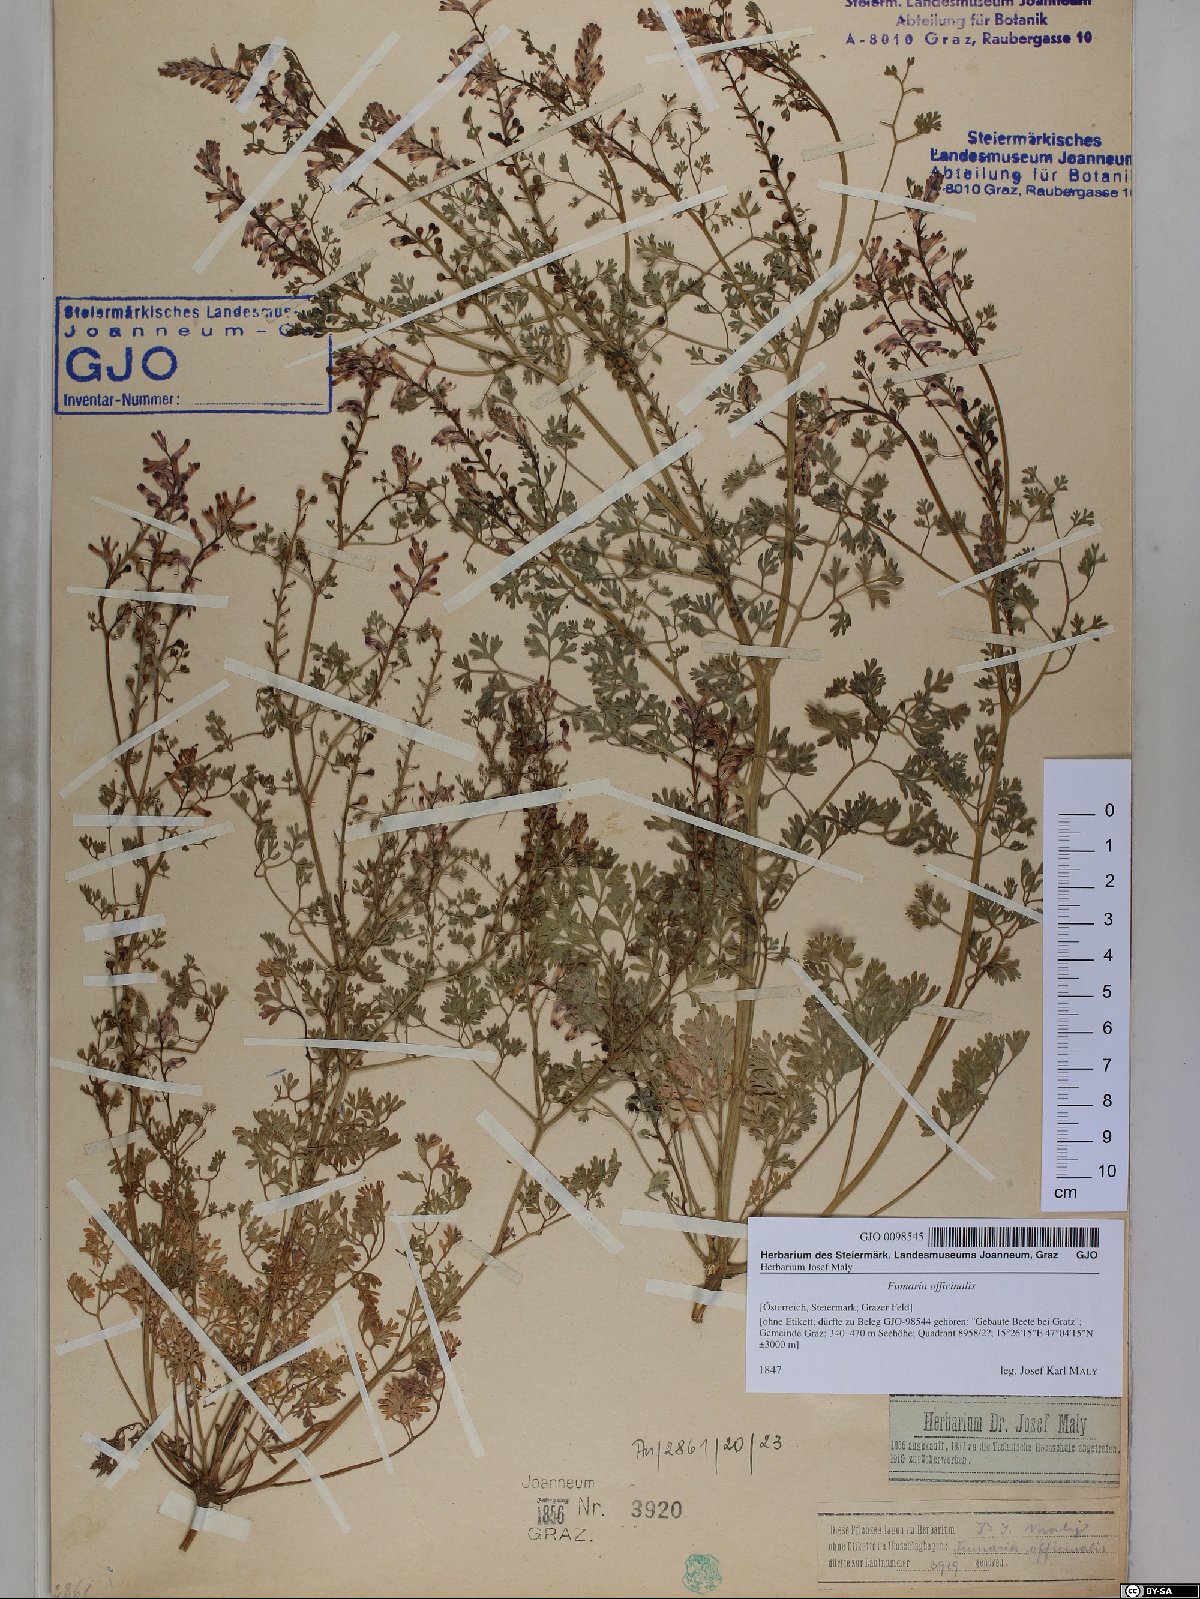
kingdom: Plantae
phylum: Tracheophyta
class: Magnoliopsida
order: Ranunculales
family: Papaveraceae
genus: Fumaria
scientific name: Fumaria officinalis
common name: Common fumitory
